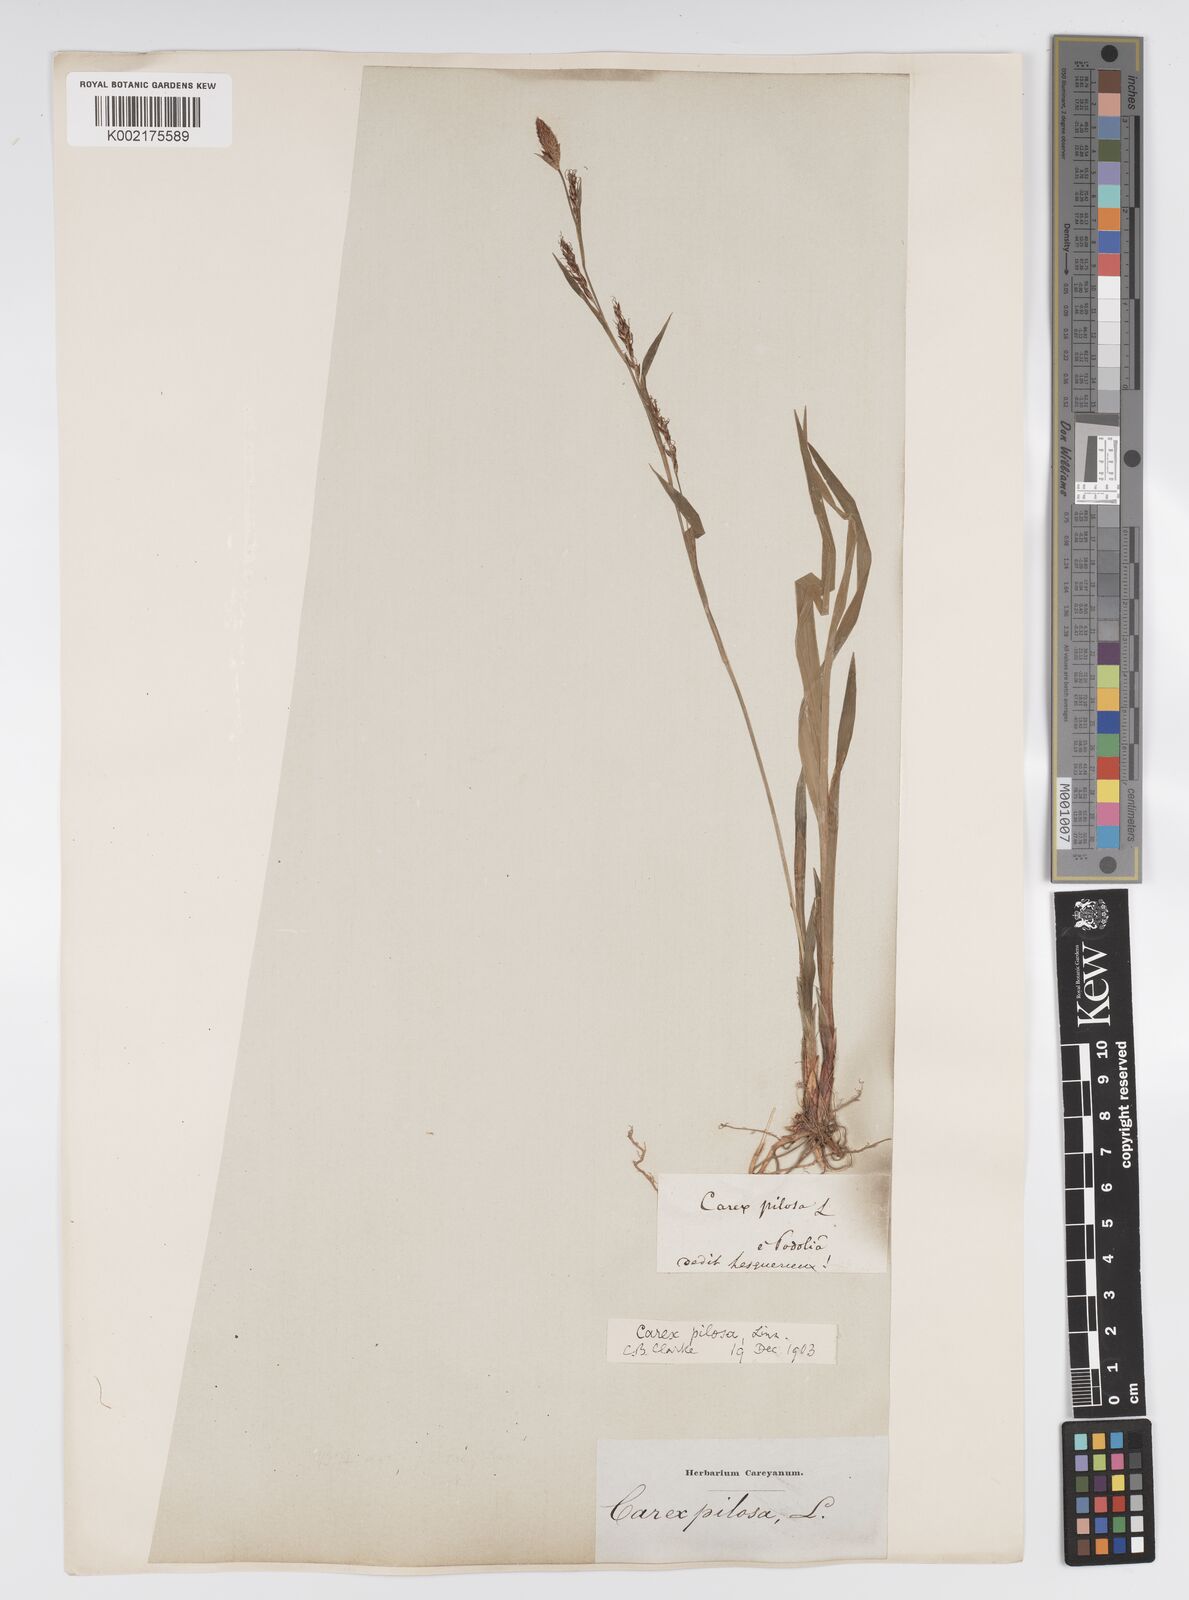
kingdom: Plantae
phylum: Tracheophyta
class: Liliopsida
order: Poales
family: Cyperaceae
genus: Carex
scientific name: Carex pilosa
